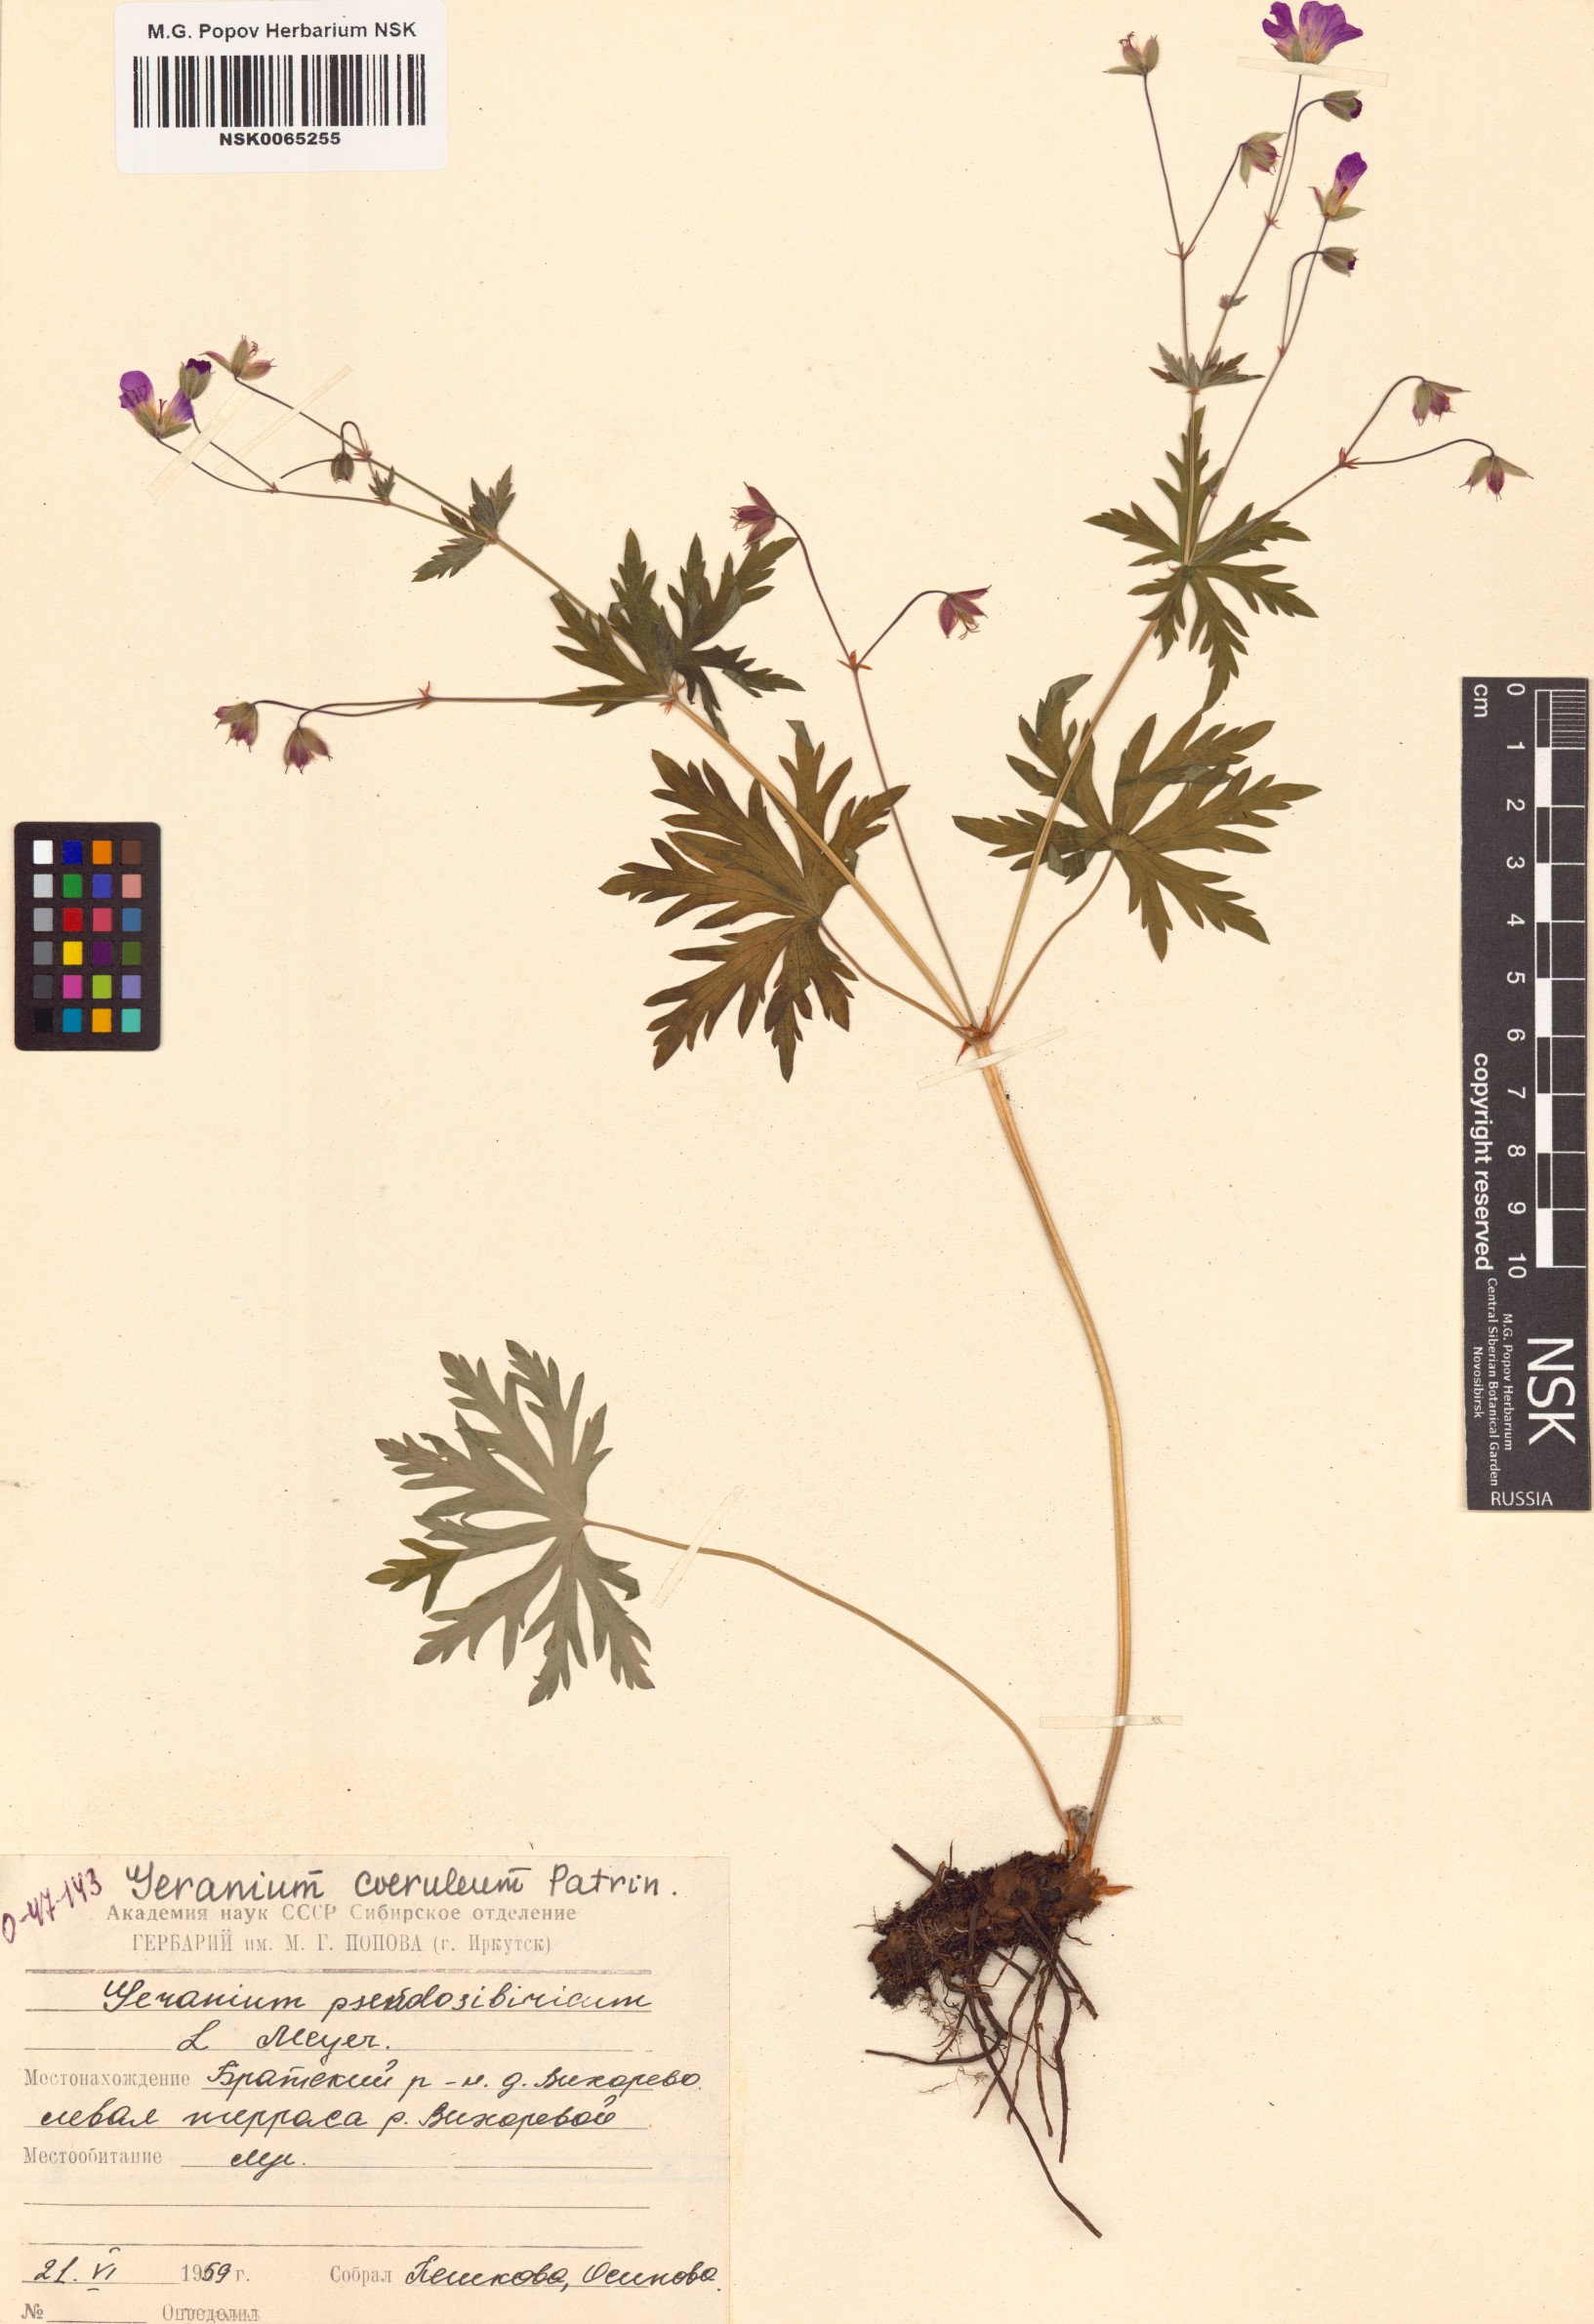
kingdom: Plantae
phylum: Tracheophyta
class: Magnoliopsida
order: Geraniales
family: Geraniaceae
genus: Geranium
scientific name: Geranium pseudosibiricum
